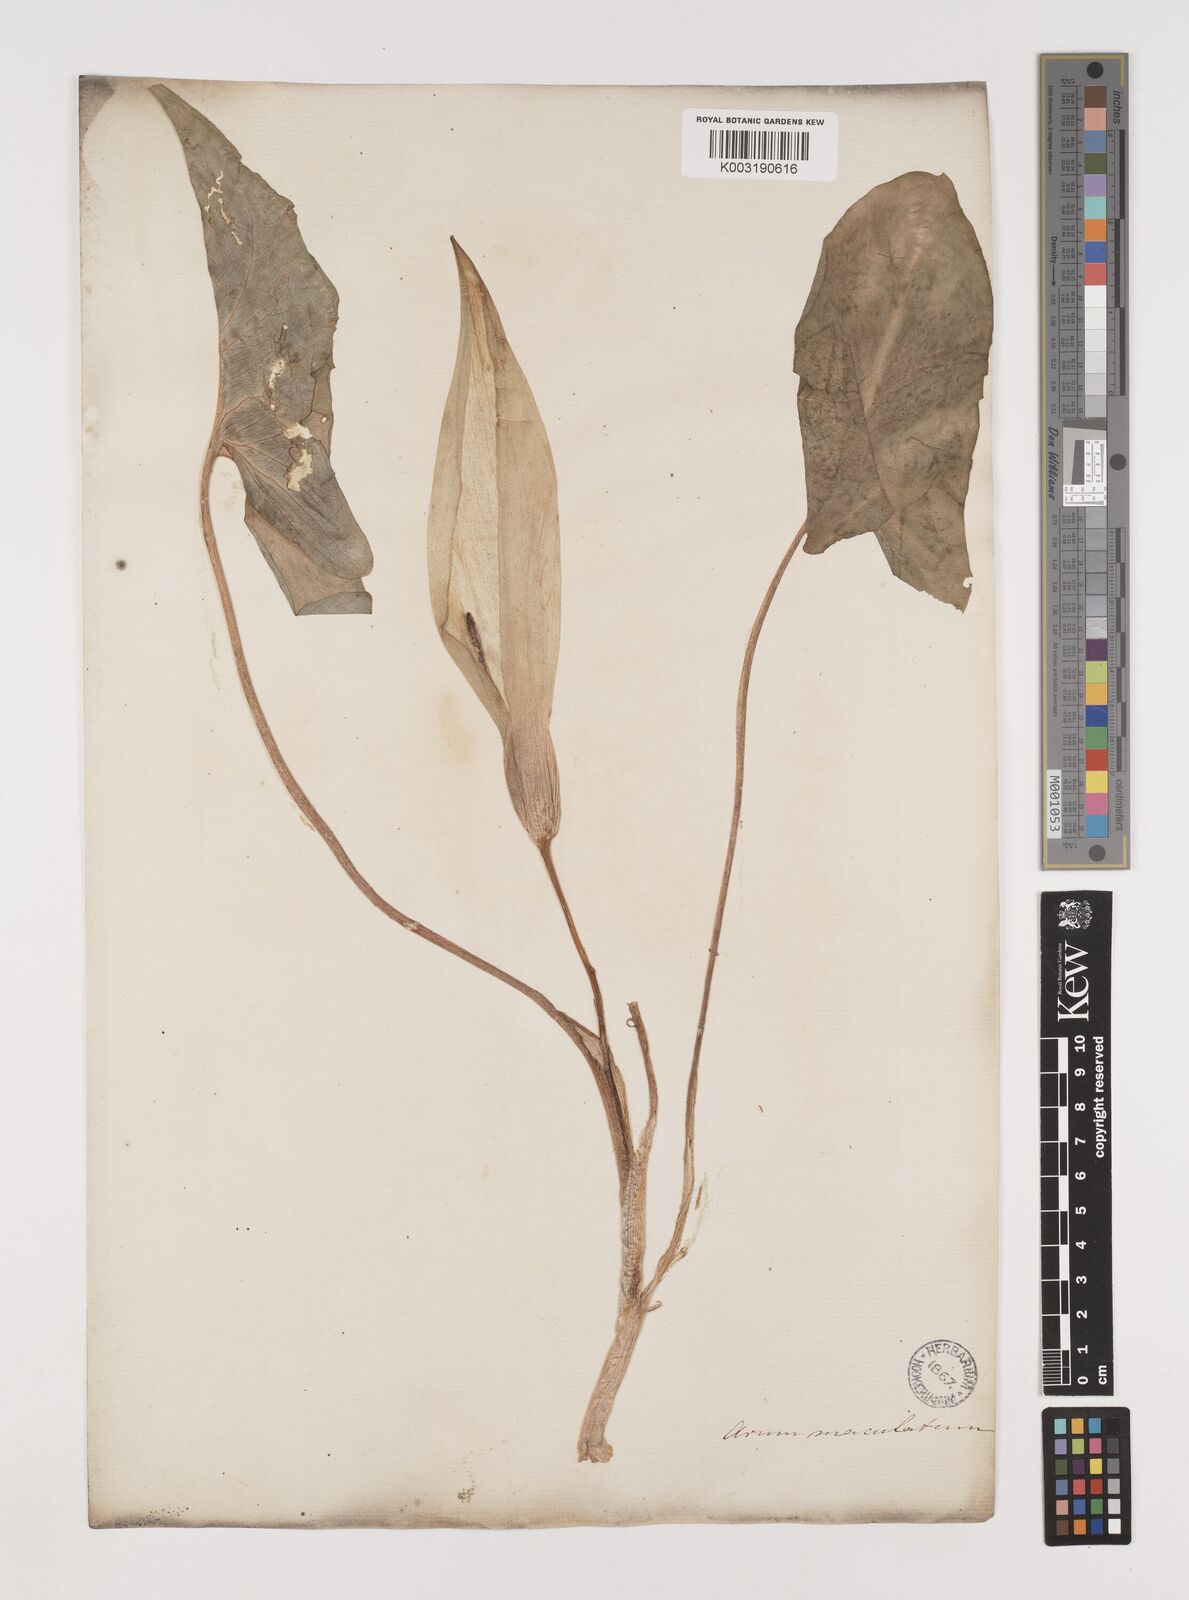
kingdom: Plantae
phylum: Tracheophyta
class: Liliopsida
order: Alismatales
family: Araceae
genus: Arum
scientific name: Arum maculatum
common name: Lords-and-ladies
